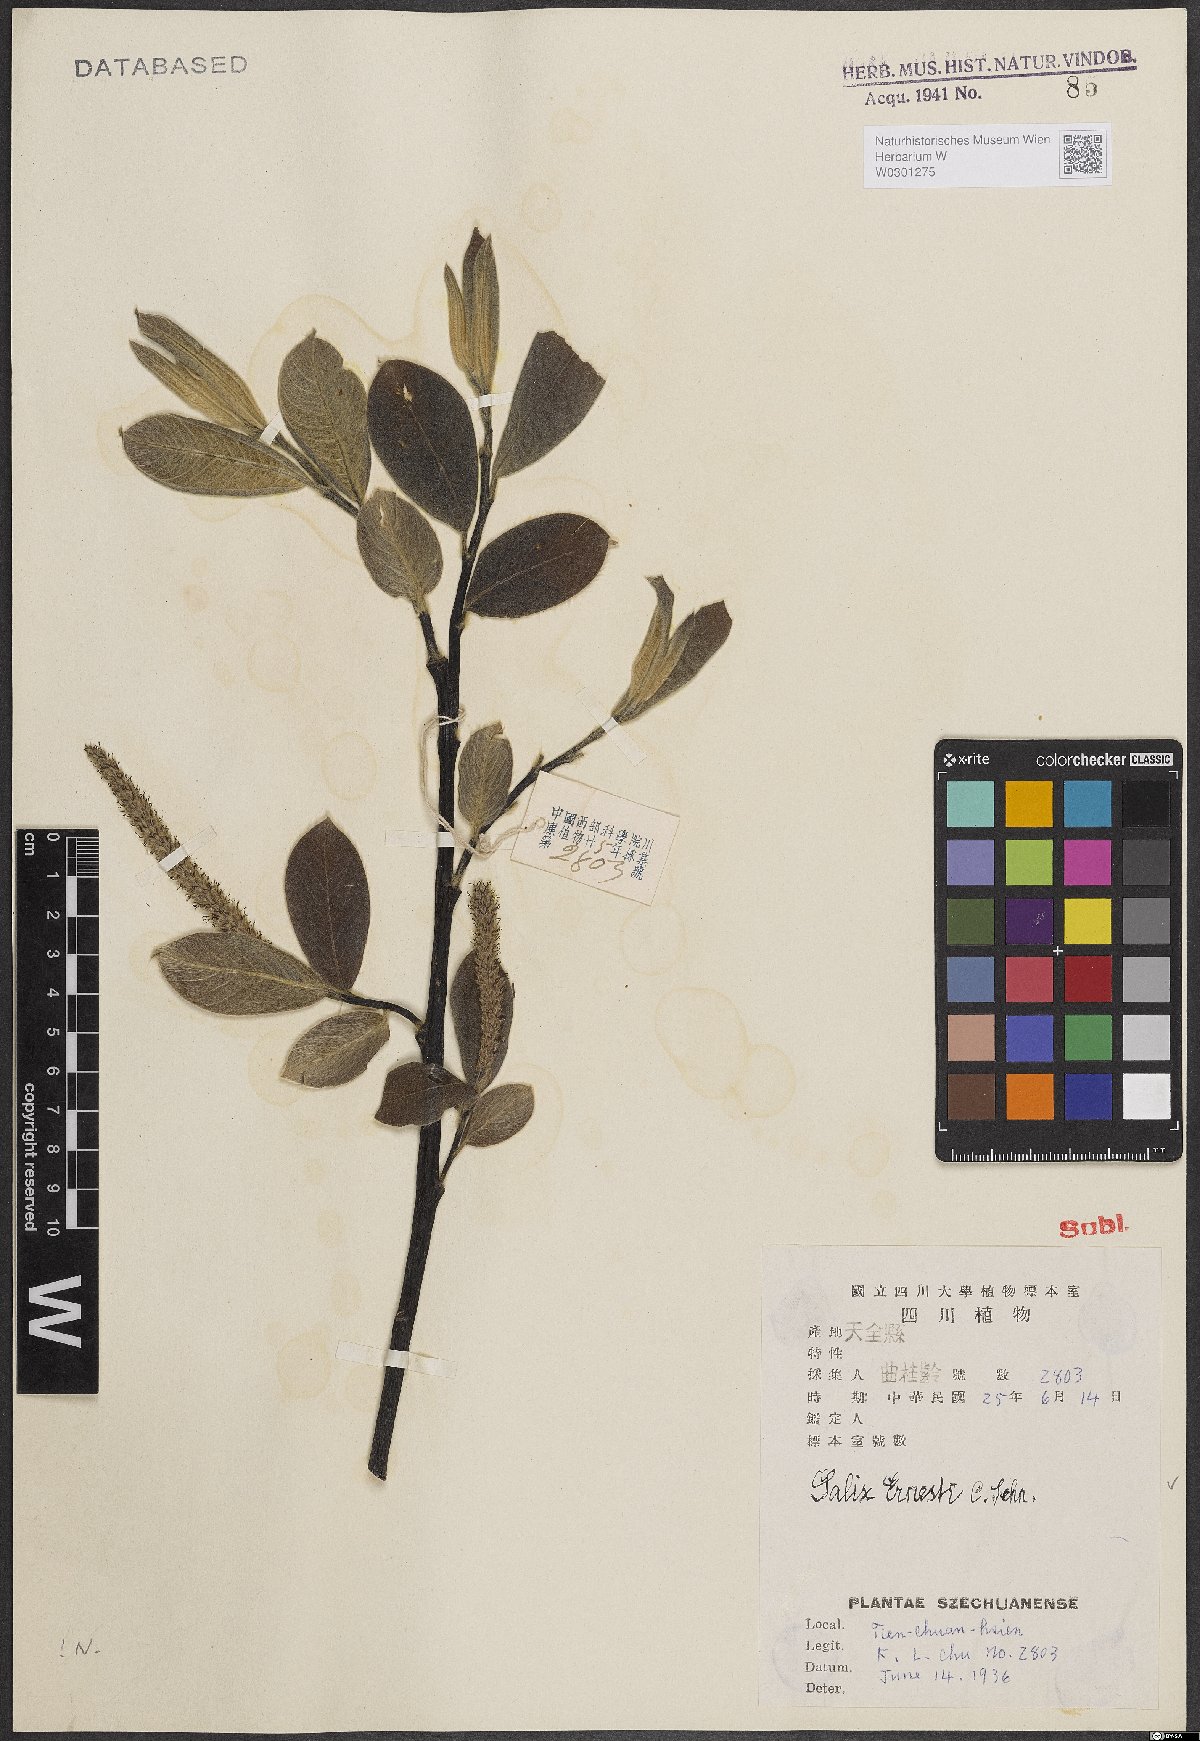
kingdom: Plantae
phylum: Tracheophyta
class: Magnoliopsida
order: Malpighiales
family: Salicaceae
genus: Salix
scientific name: Salix ernestii
